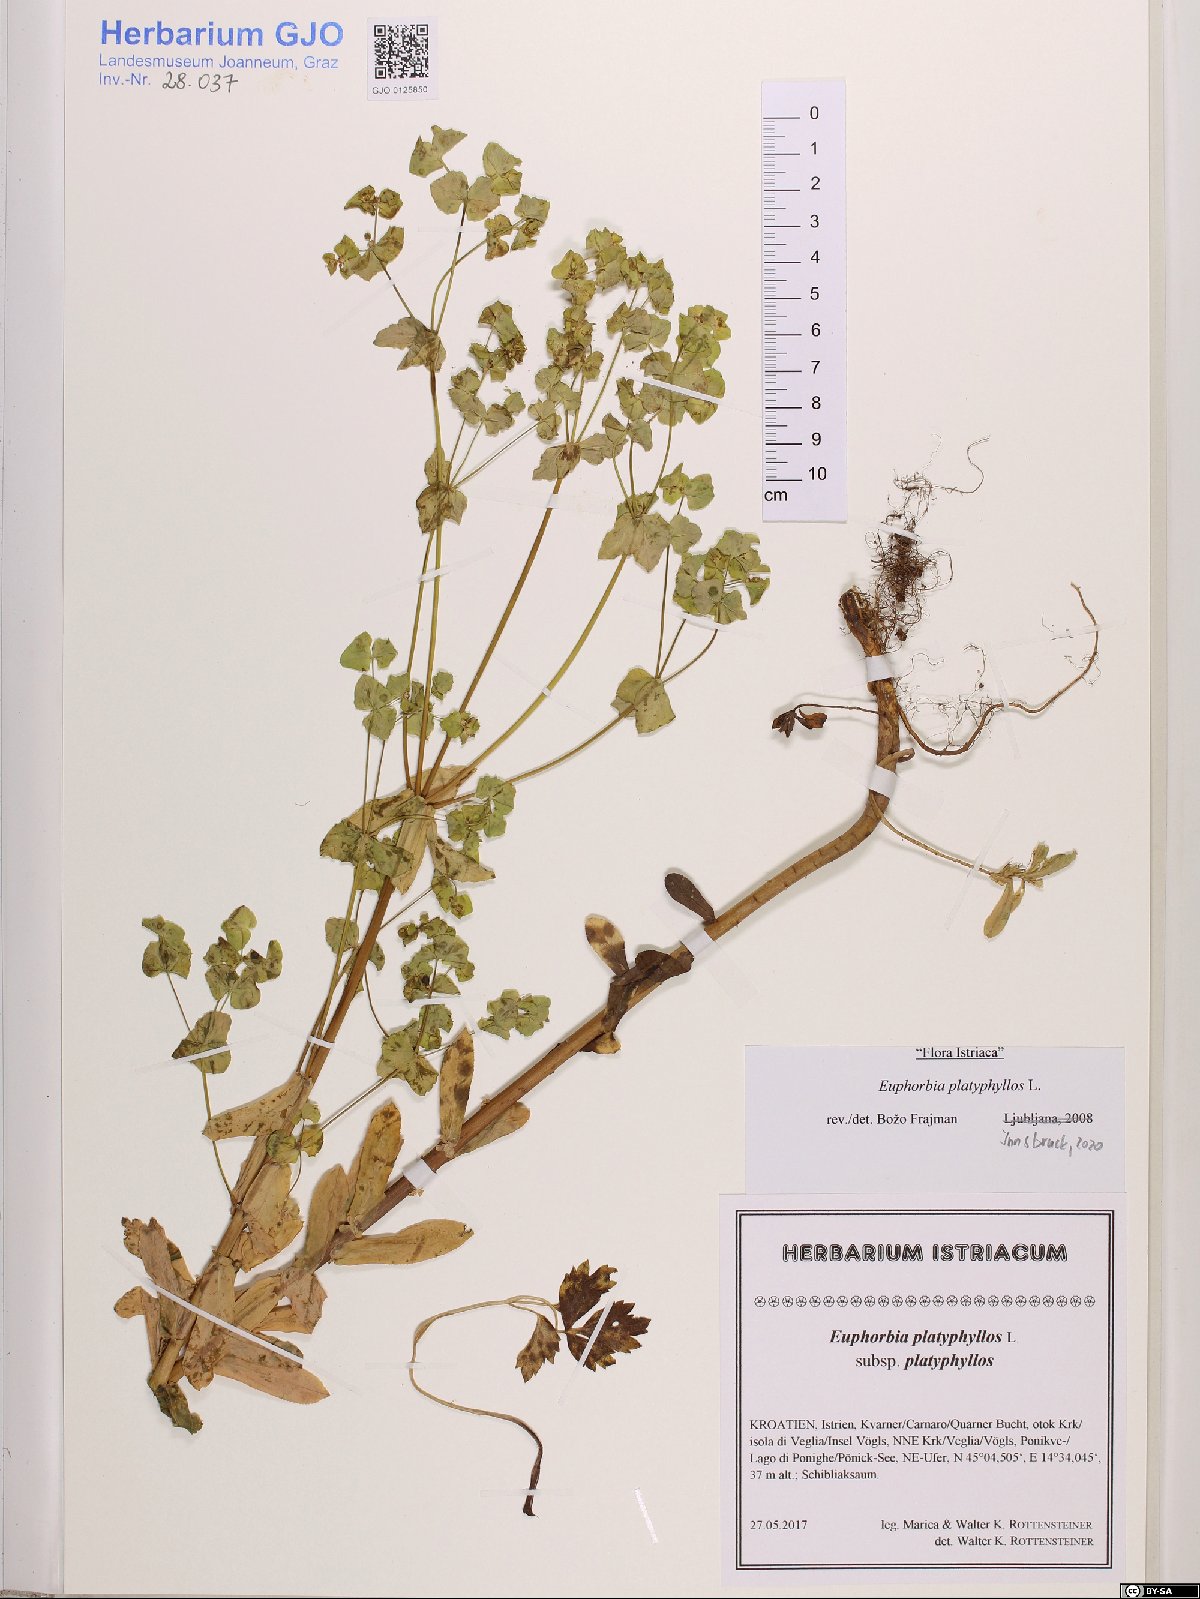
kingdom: Plantae
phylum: Tracheophyta
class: Magnoliopsida
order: Malpighiales
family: Euphorbiaceae
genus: Euphorbia
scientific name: Euphorbia platyphyllos
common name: Broad-leaved spurge
